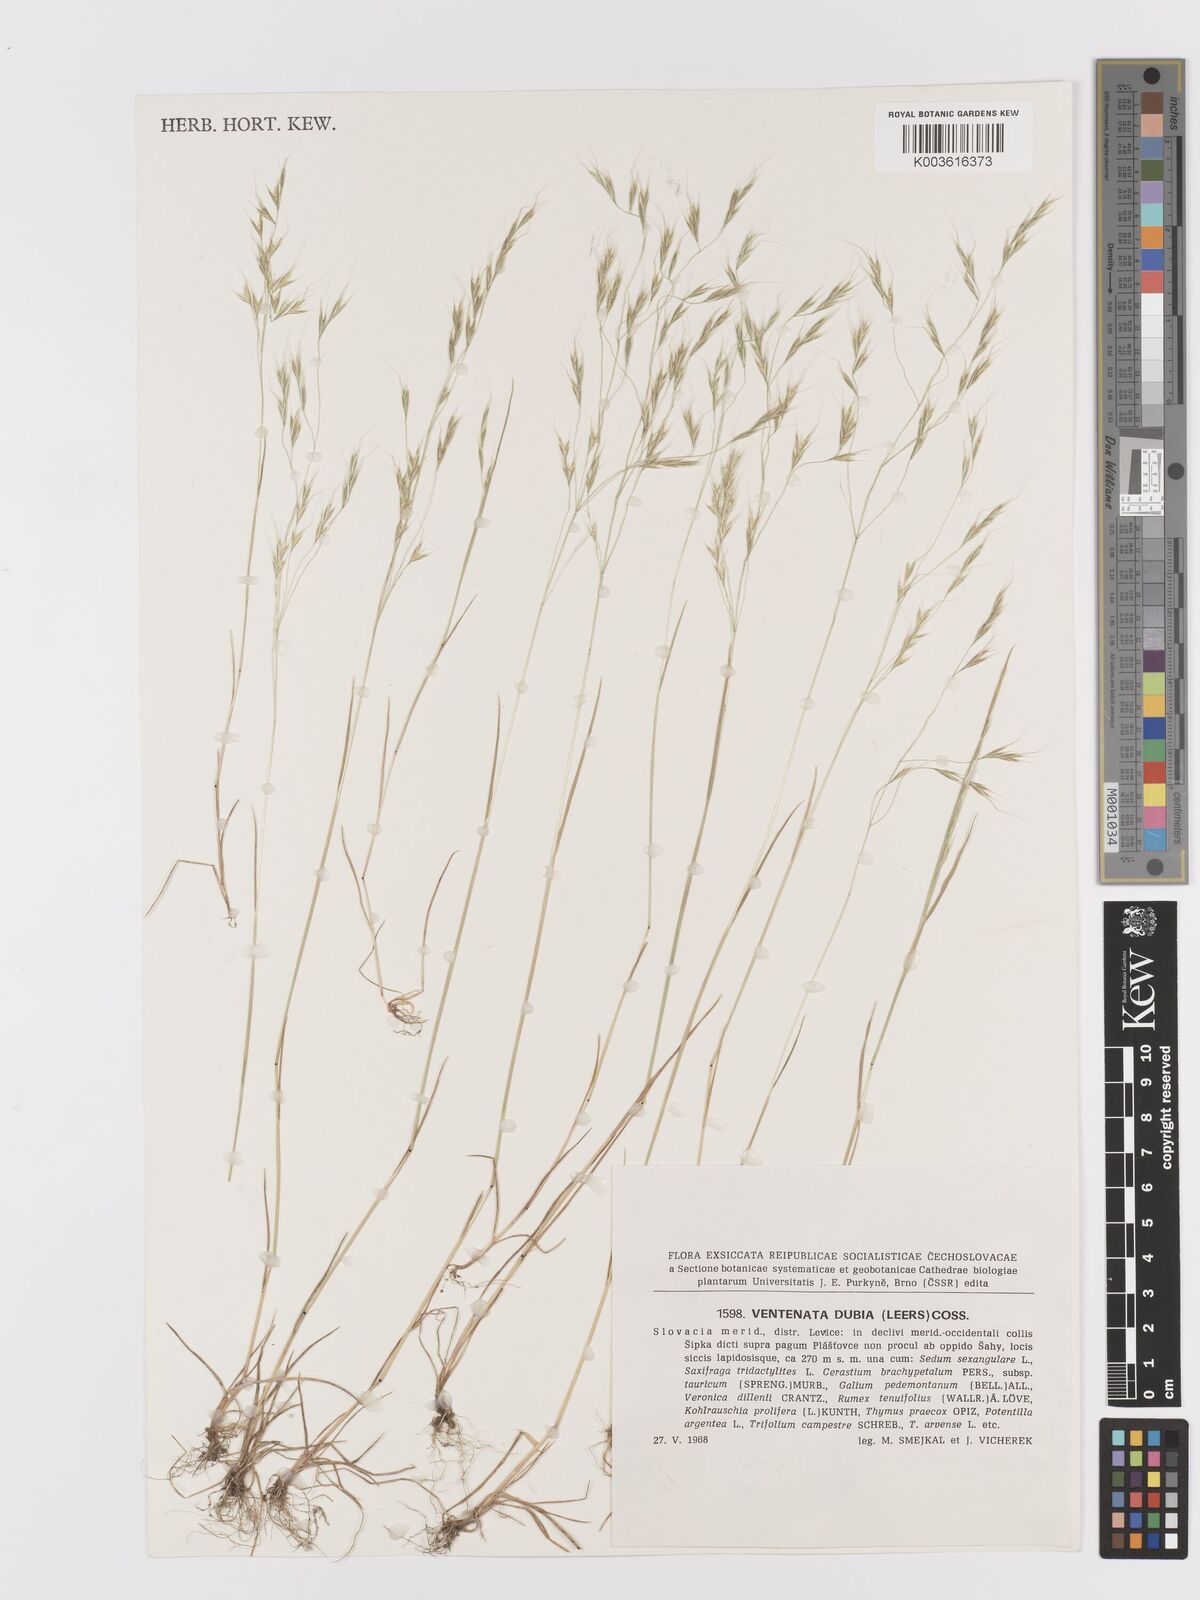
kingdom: Plantae
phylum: Tracheophyta
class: Liliopsida
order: Poales
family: Poaceae
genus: Ventenata
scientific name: Ventenata dubia
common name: North africa grass
